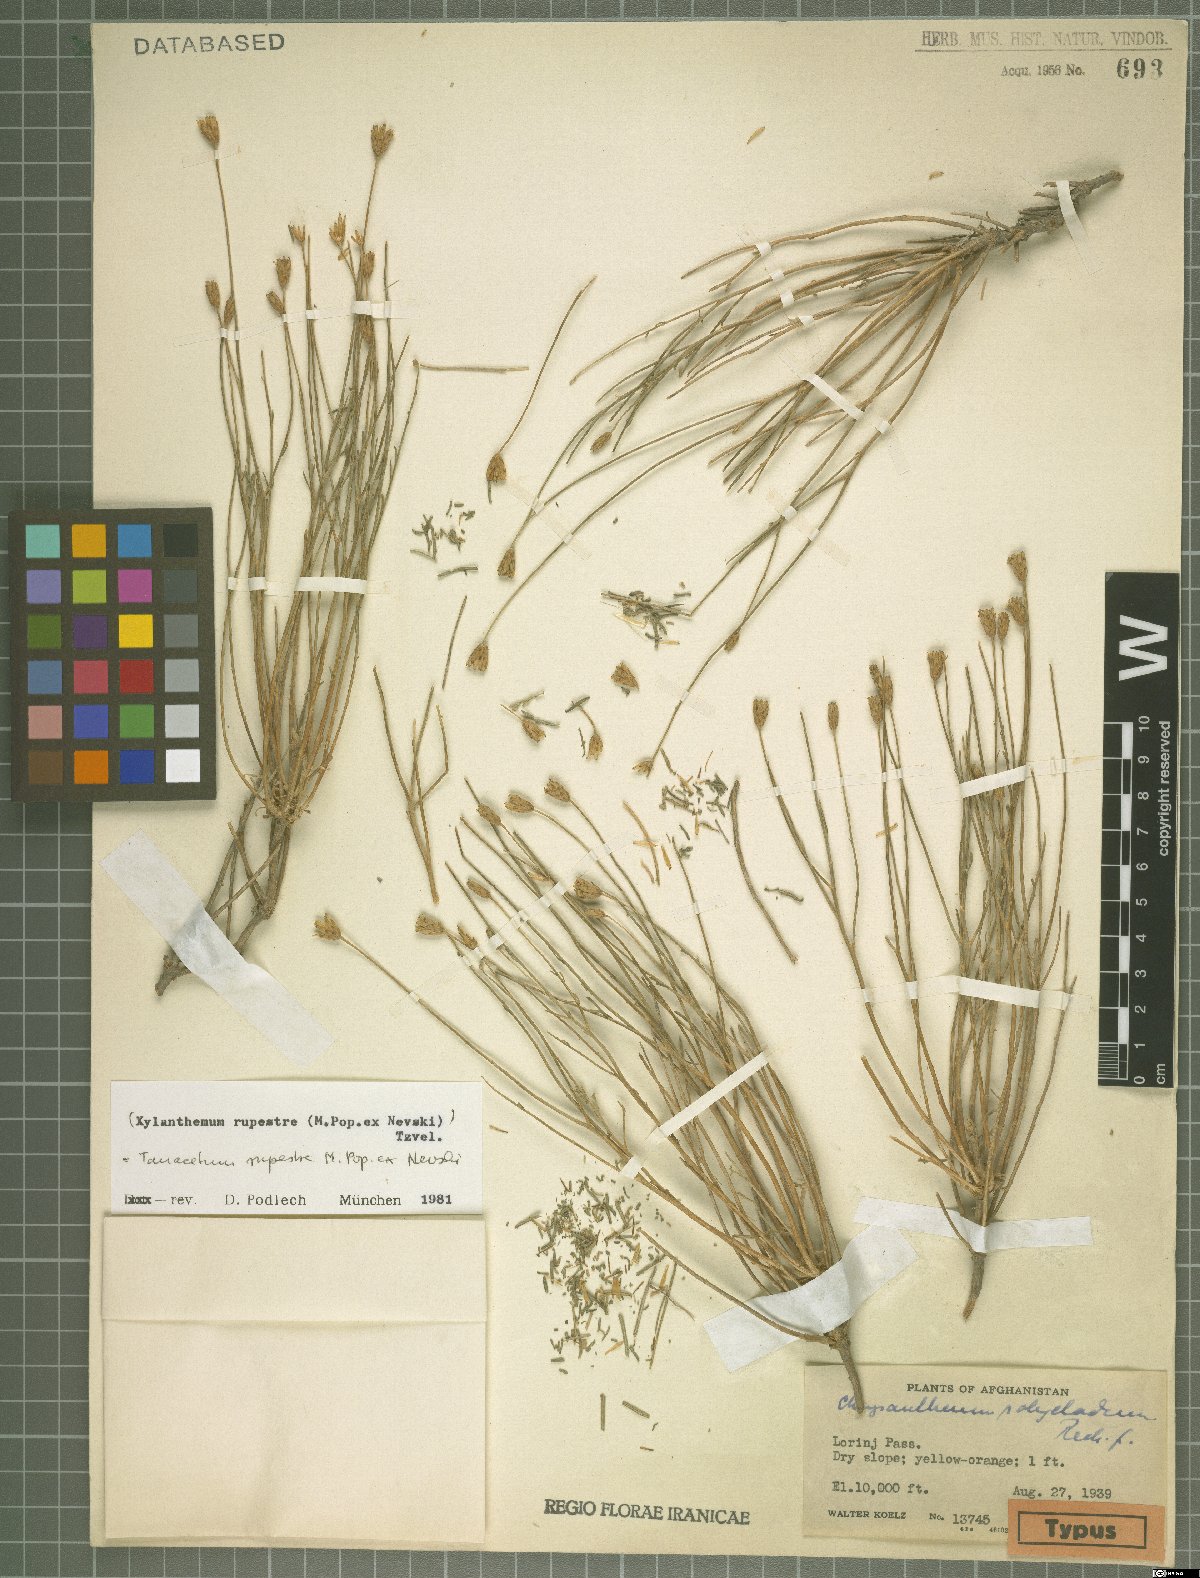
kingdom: Plantae
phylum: Tracheophyta
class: Magnoliopsida
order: Asterales
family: Asteraceae
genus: Tanacetum
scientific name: Tanacetum rupestre
